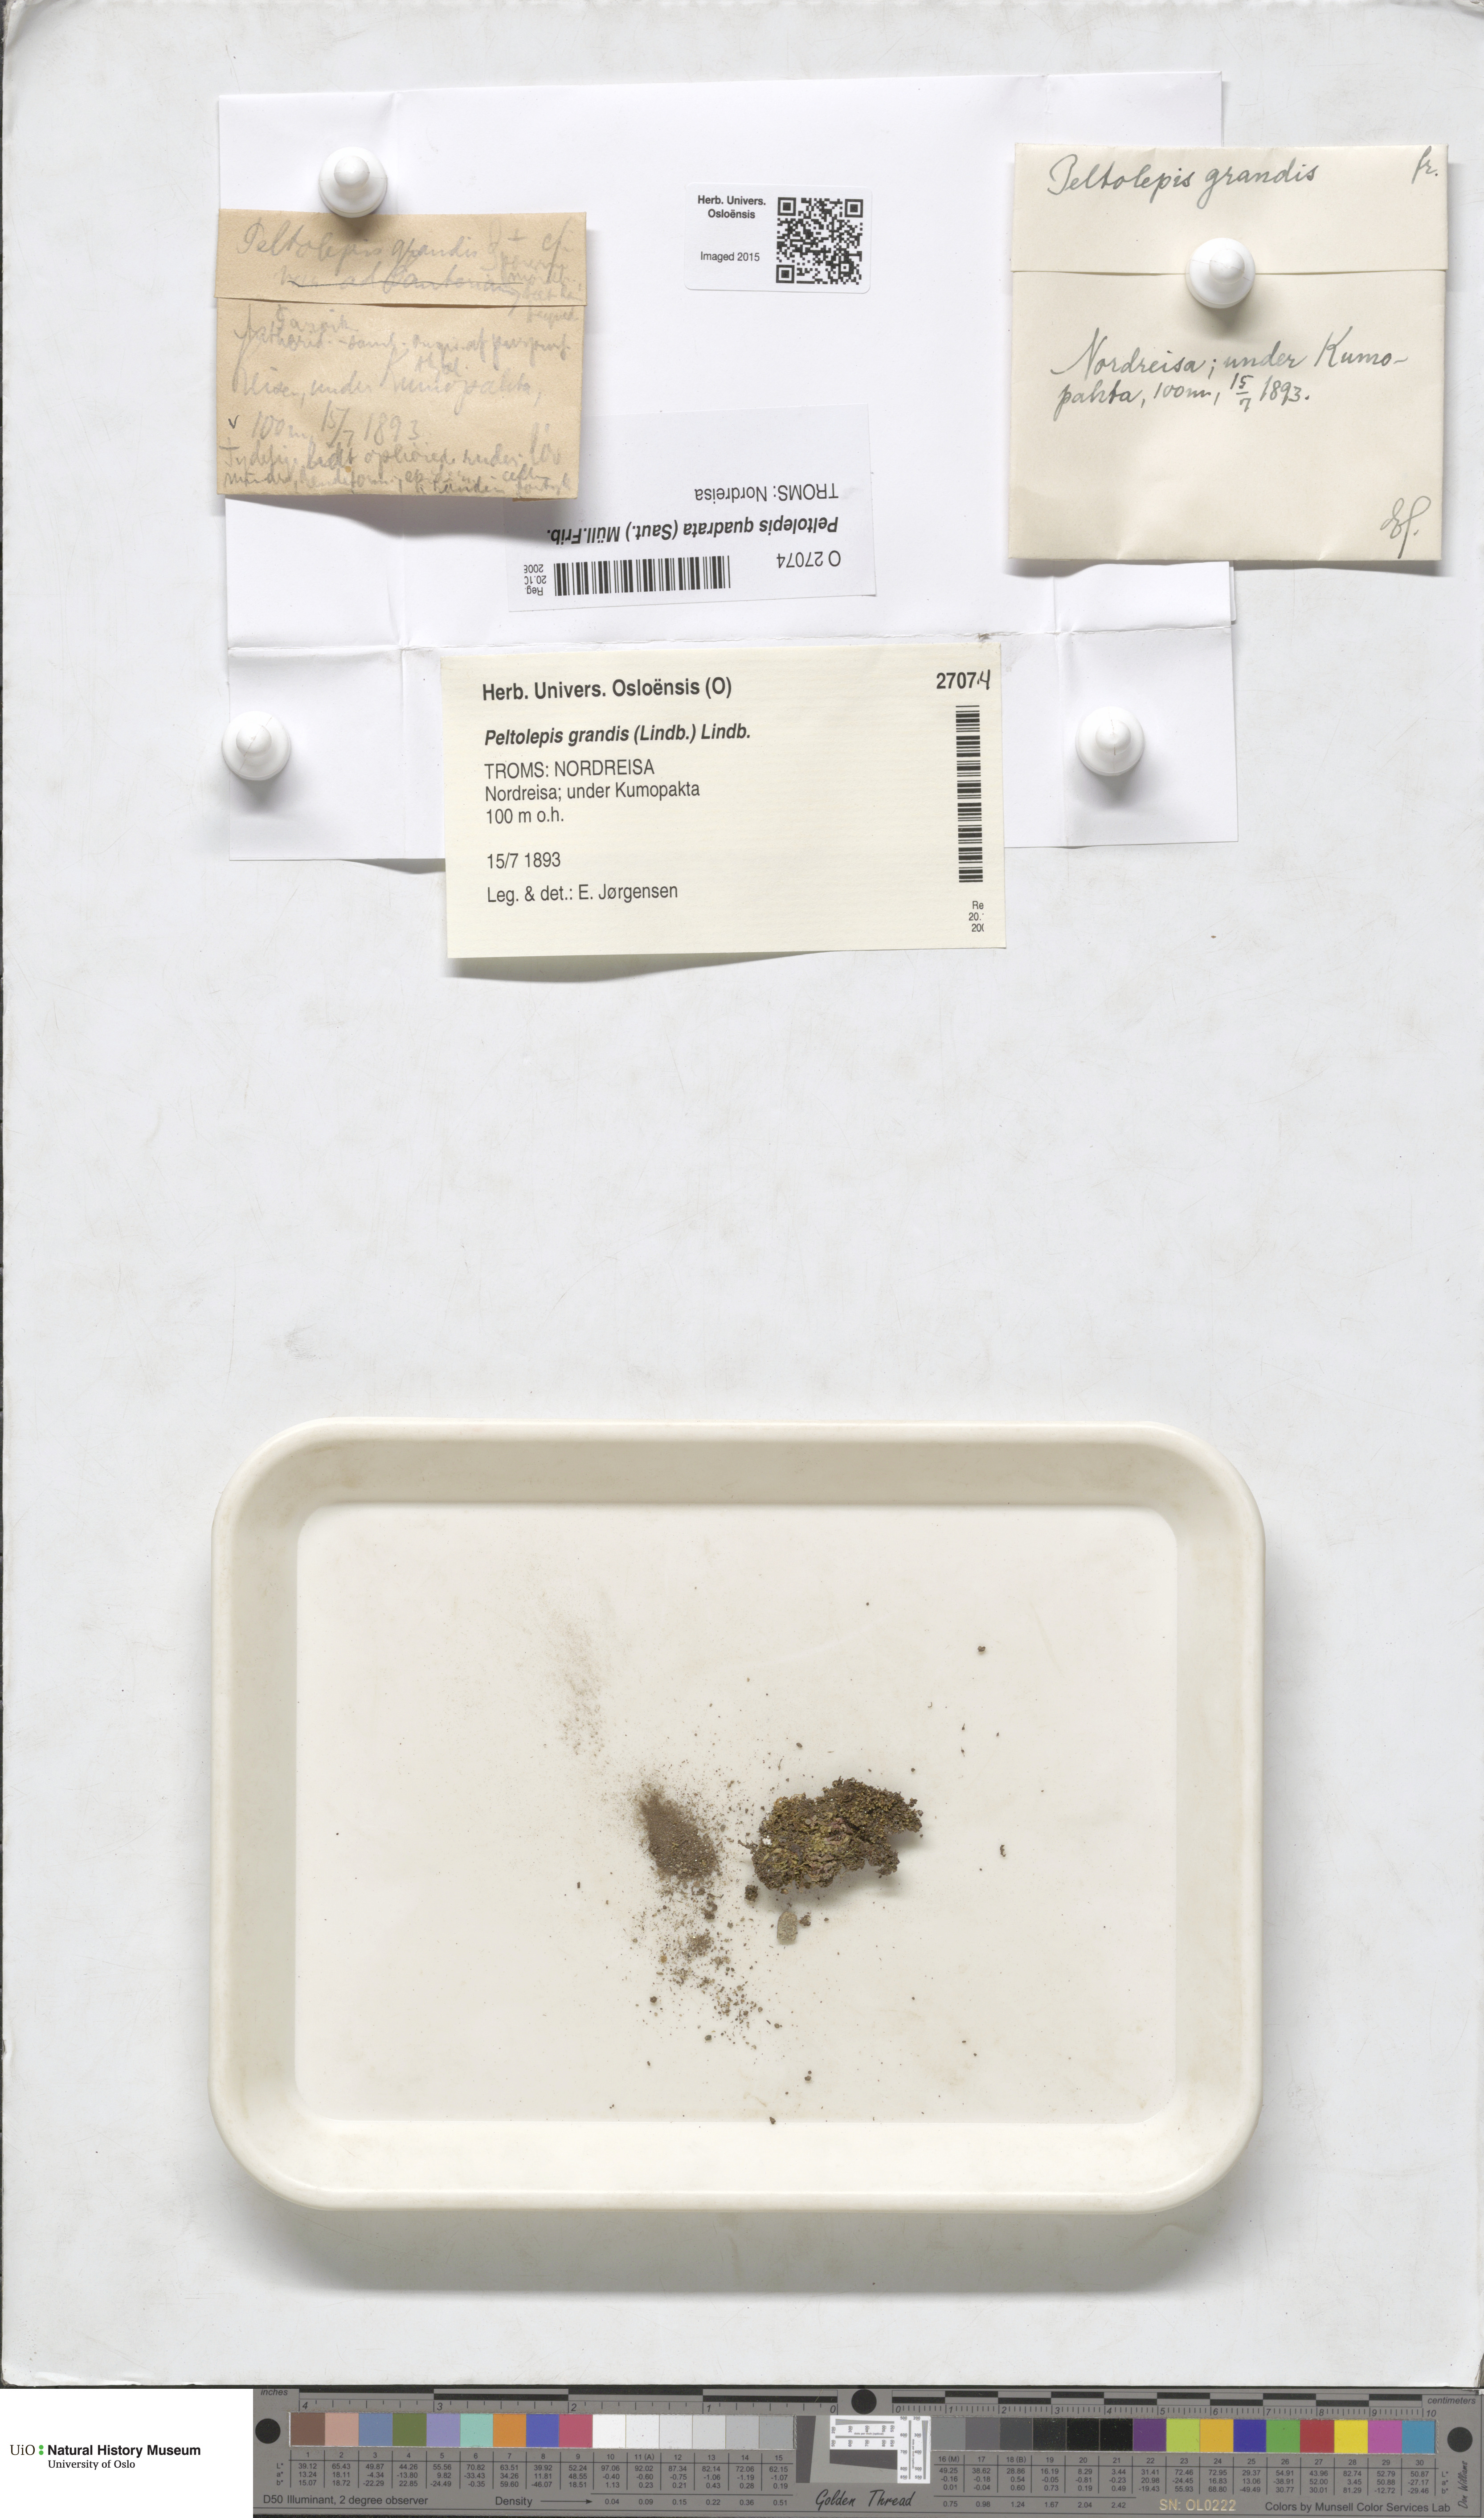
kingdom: Plantae
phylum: Marchantiophyta
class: Marchantiopsida
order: Marchantiales
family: Cleveaceae
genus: Peltolepis
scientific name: Peltolepis quadrata
